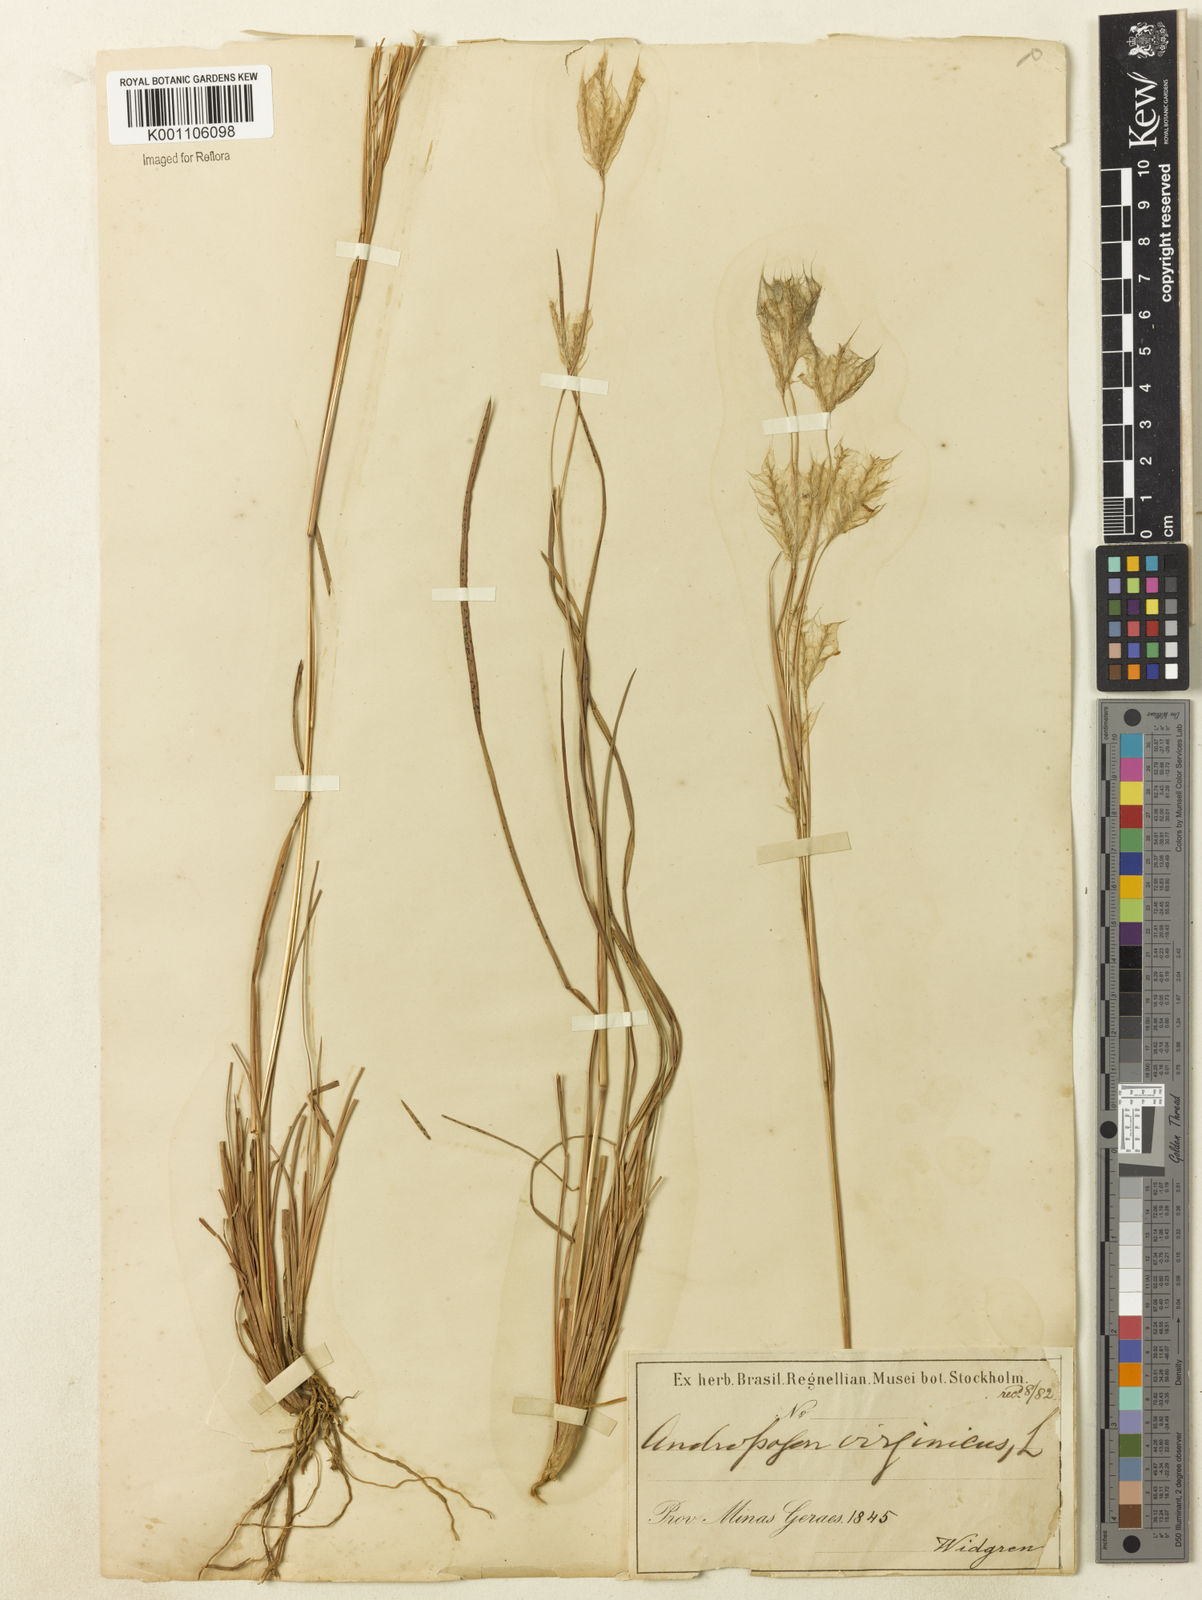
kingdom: Plantae
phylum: Tracheophyta
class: Liliopsida
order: Poales
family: Poaceae
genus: Andropogon
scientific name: Andropogon leucostachyus
